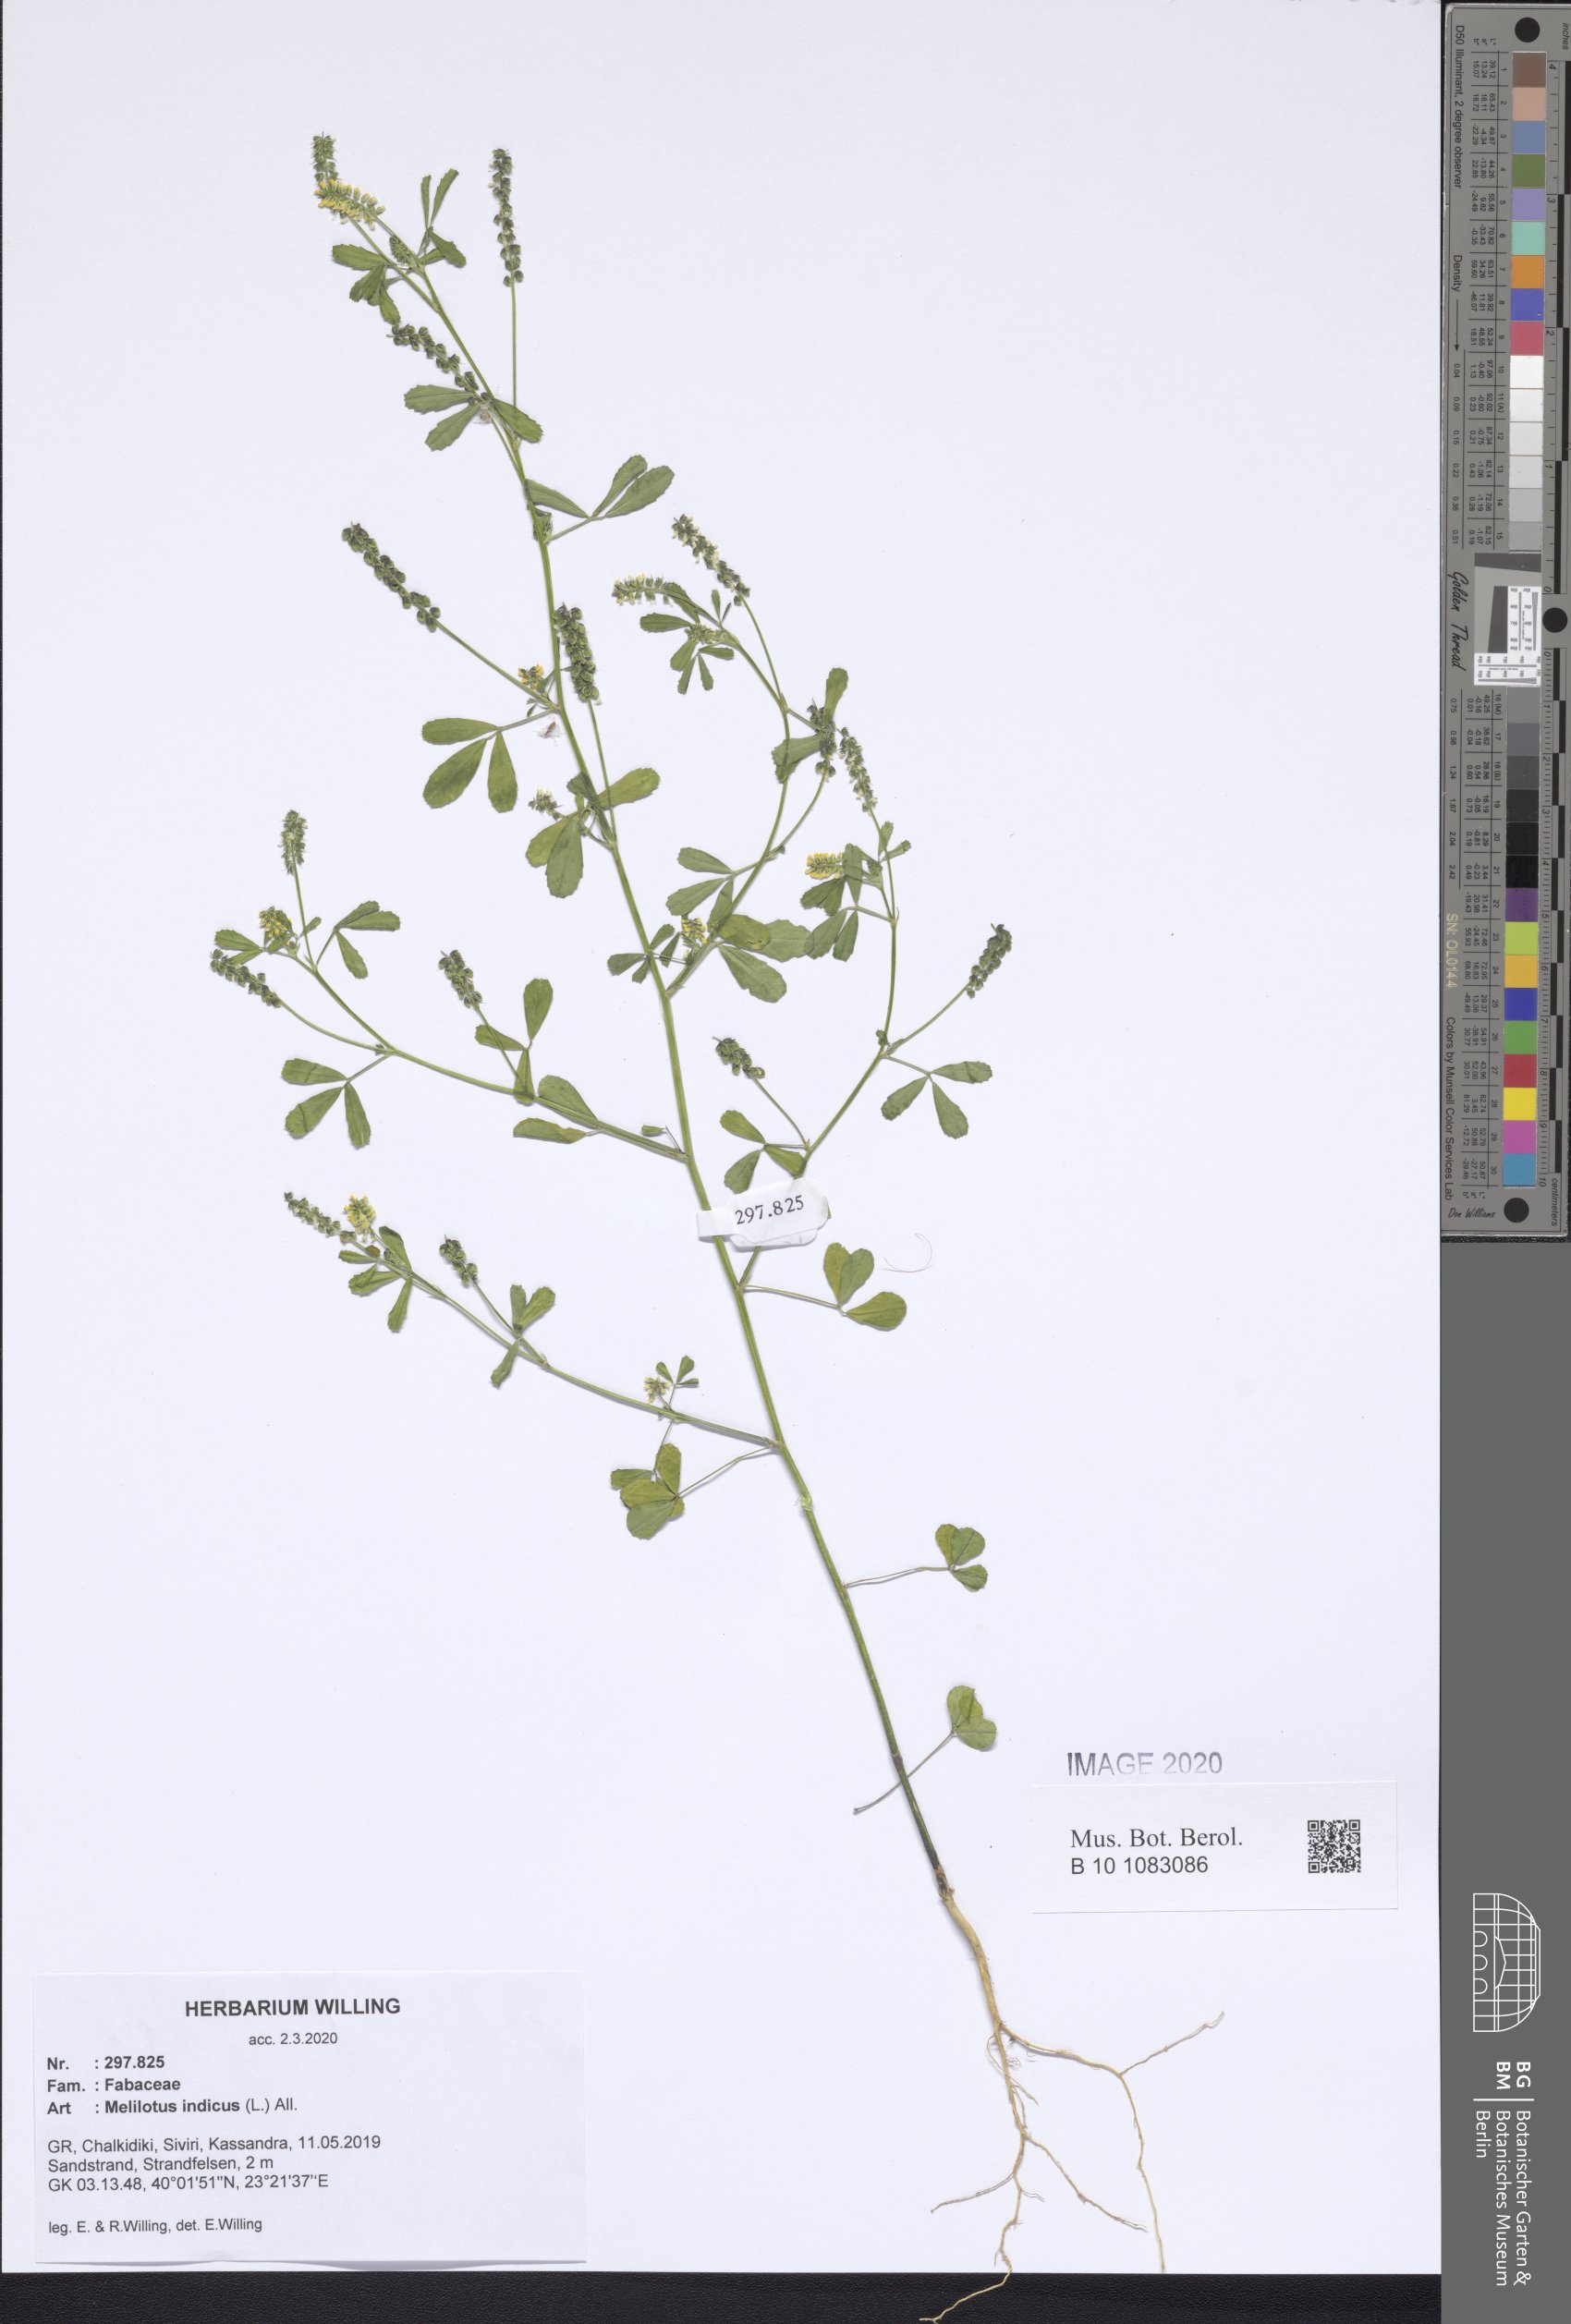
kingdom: Plantae
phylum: Tracheophyta
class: Magnoliopsida
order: Fabales
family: Fabaceae
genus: Melilotus
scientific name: Melilotus indicus
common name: Small melilot
